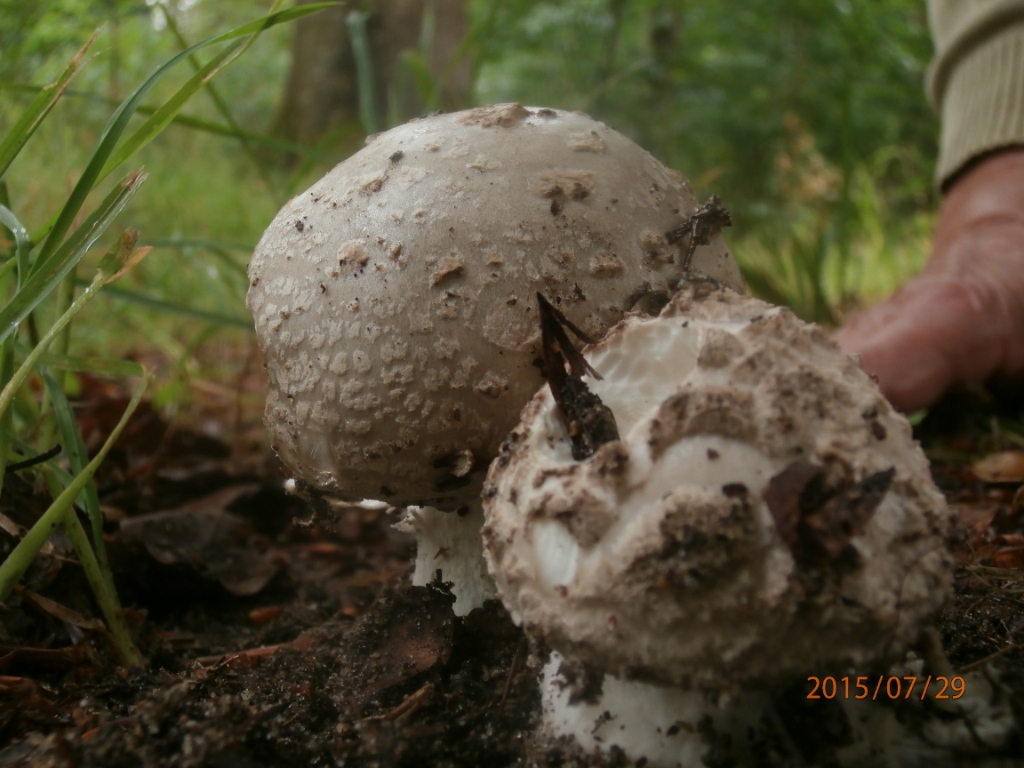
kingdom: Fungi
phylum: Basidiomycota
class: Agaricomycetes
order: Agaricales
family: Amanitaceae
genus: Amanita
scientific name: Amanita
